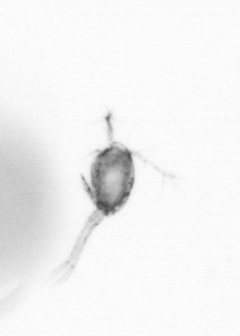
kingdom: Animalia
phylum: Arthropoda
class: Copepoda
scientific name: Copepoda
